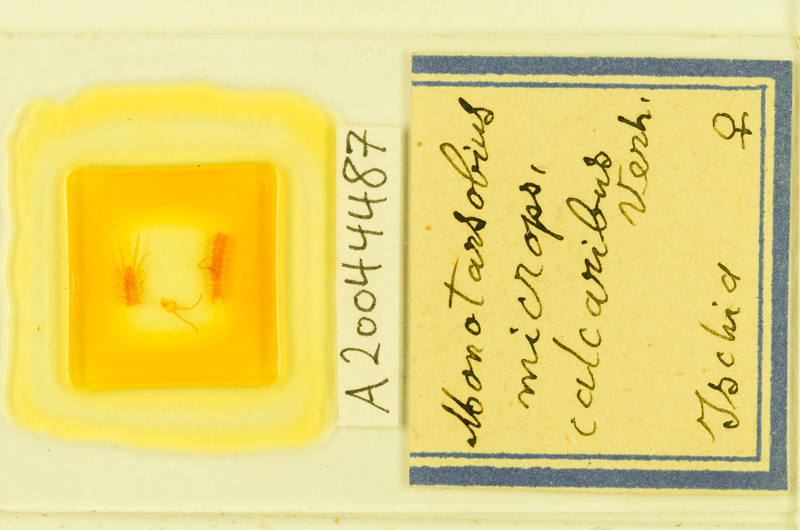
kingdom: Animalia
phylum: Arthropoda
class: Chilopoda
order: Lithobiomorpha
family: Lithobiidae
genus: Monotarsobius
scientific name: Monotarsobius microps
